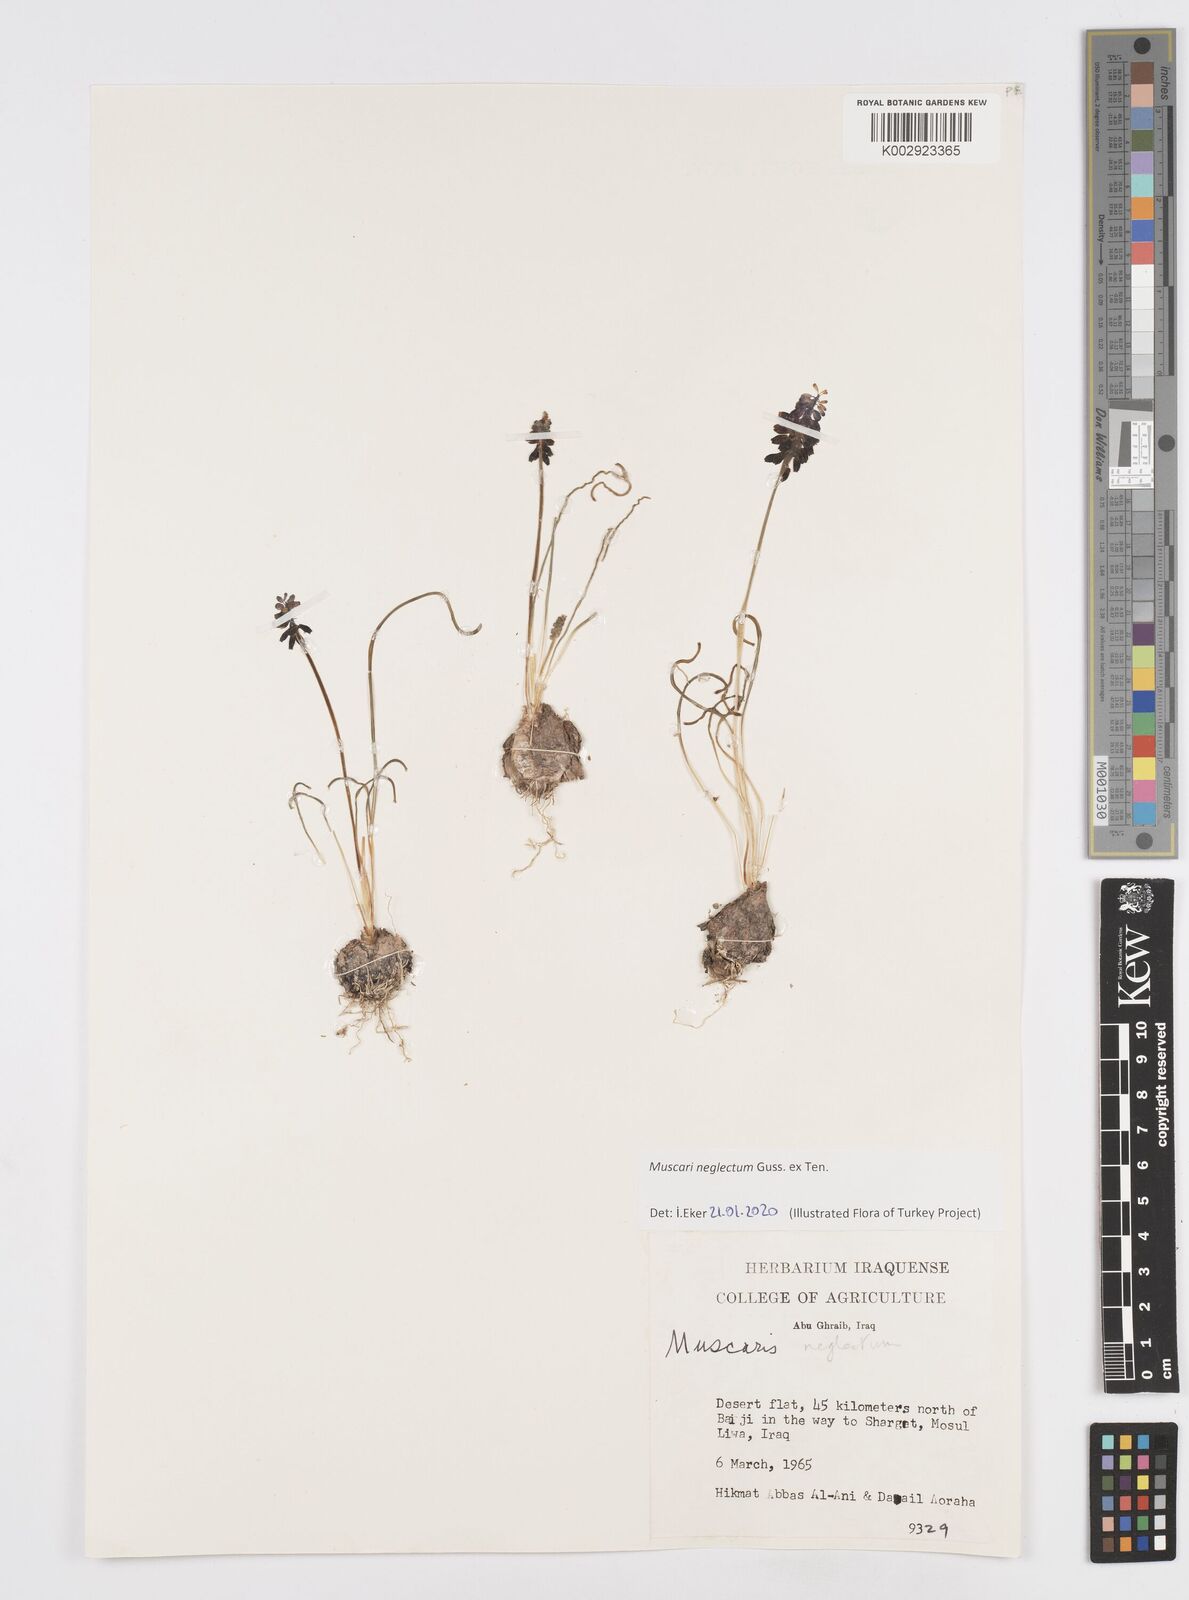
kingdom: Plantae
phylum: Tracheophyta
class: Liliopsida
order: Asparagales
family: Asparagaceae
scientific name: Asparagaceae
